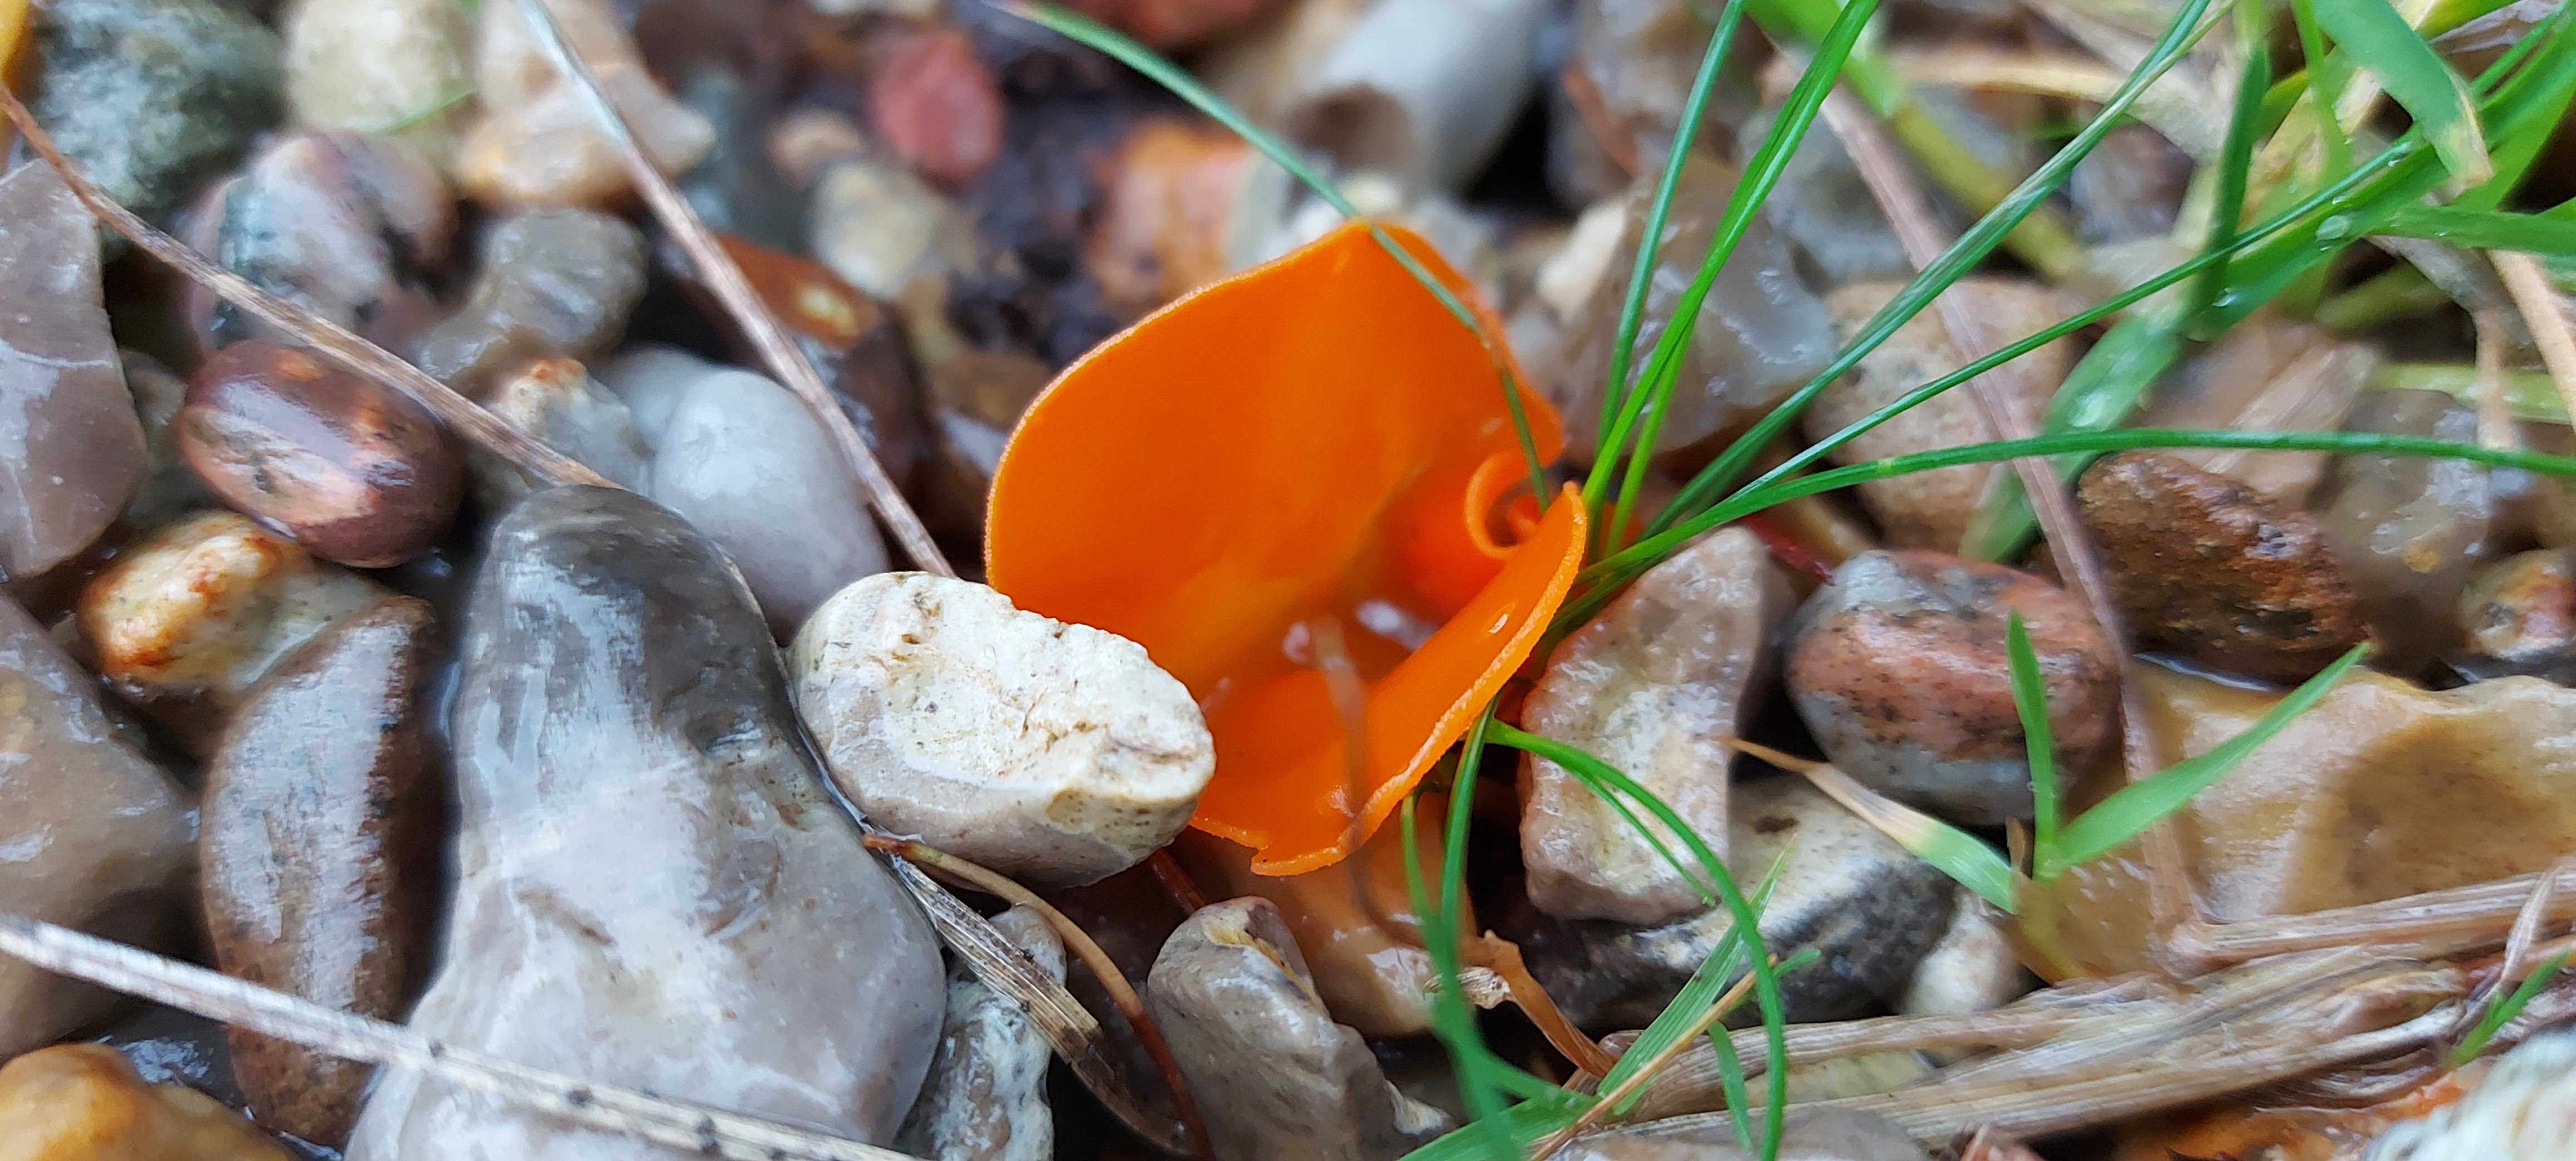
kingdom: Fungi
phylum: Ascomycota
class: Pezizomycetes
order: Pezizales
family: Pyronemataceae
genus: Aleuria
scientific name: Aleuria aurantia
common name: almindelig orangebæger
